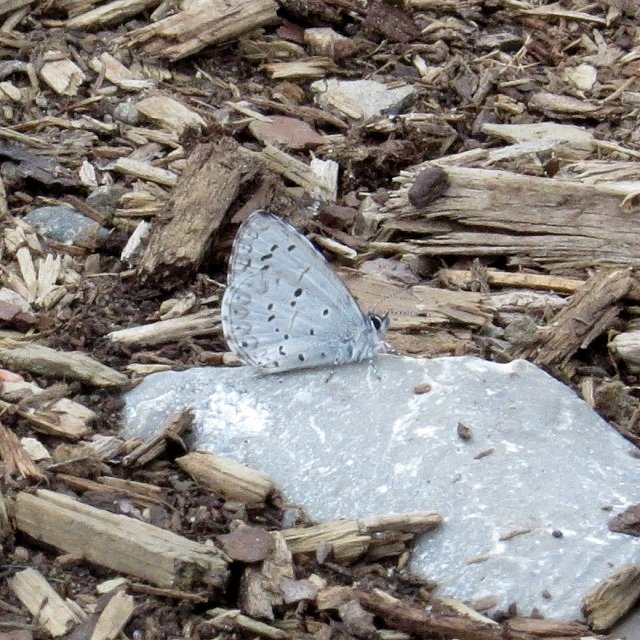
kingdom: Animalia
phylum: Arthropoda
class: Insecta
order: Lepidoptera
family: Lycaenidae
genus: Celastrina
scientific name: Celastrina lucia
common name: Northern Spring Azure
